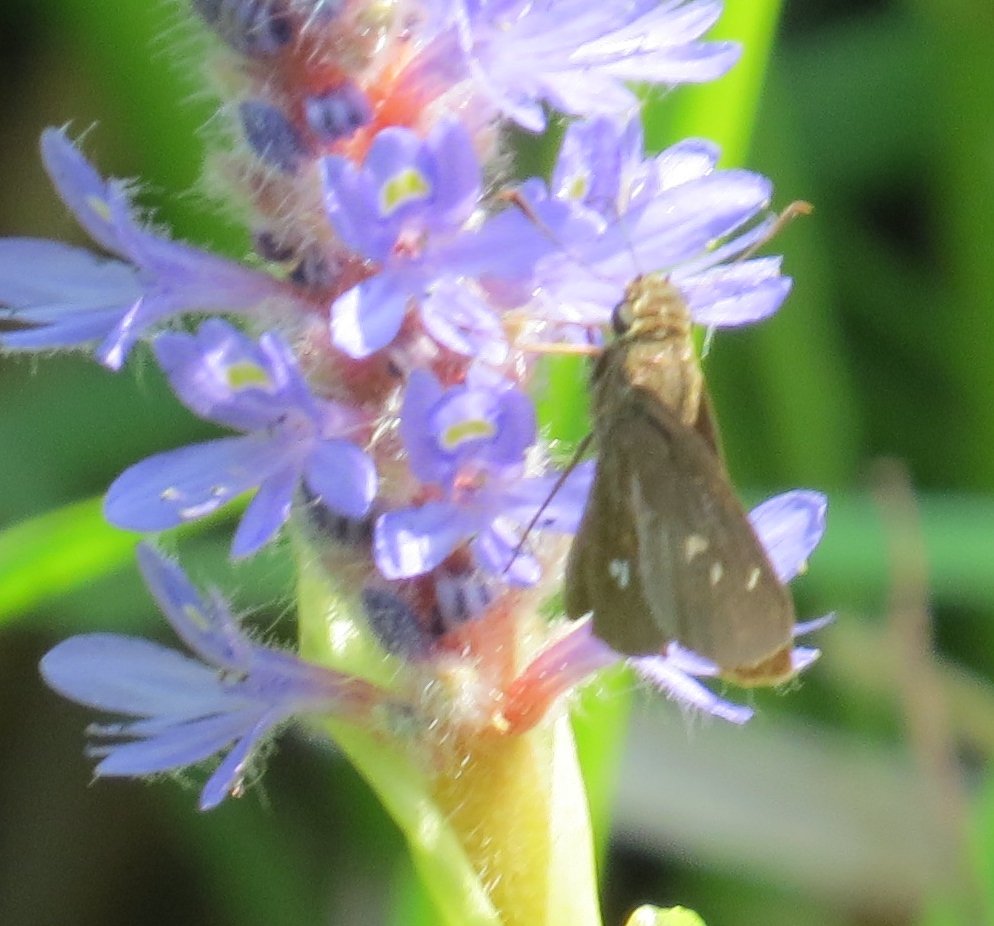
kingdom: Animalia
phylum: Arthropoda
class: Insecta
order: Lepidoptera
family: Hesperiidae
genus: Oligoria
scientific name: Oligoria maculata
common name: Twin-spot Skipper
